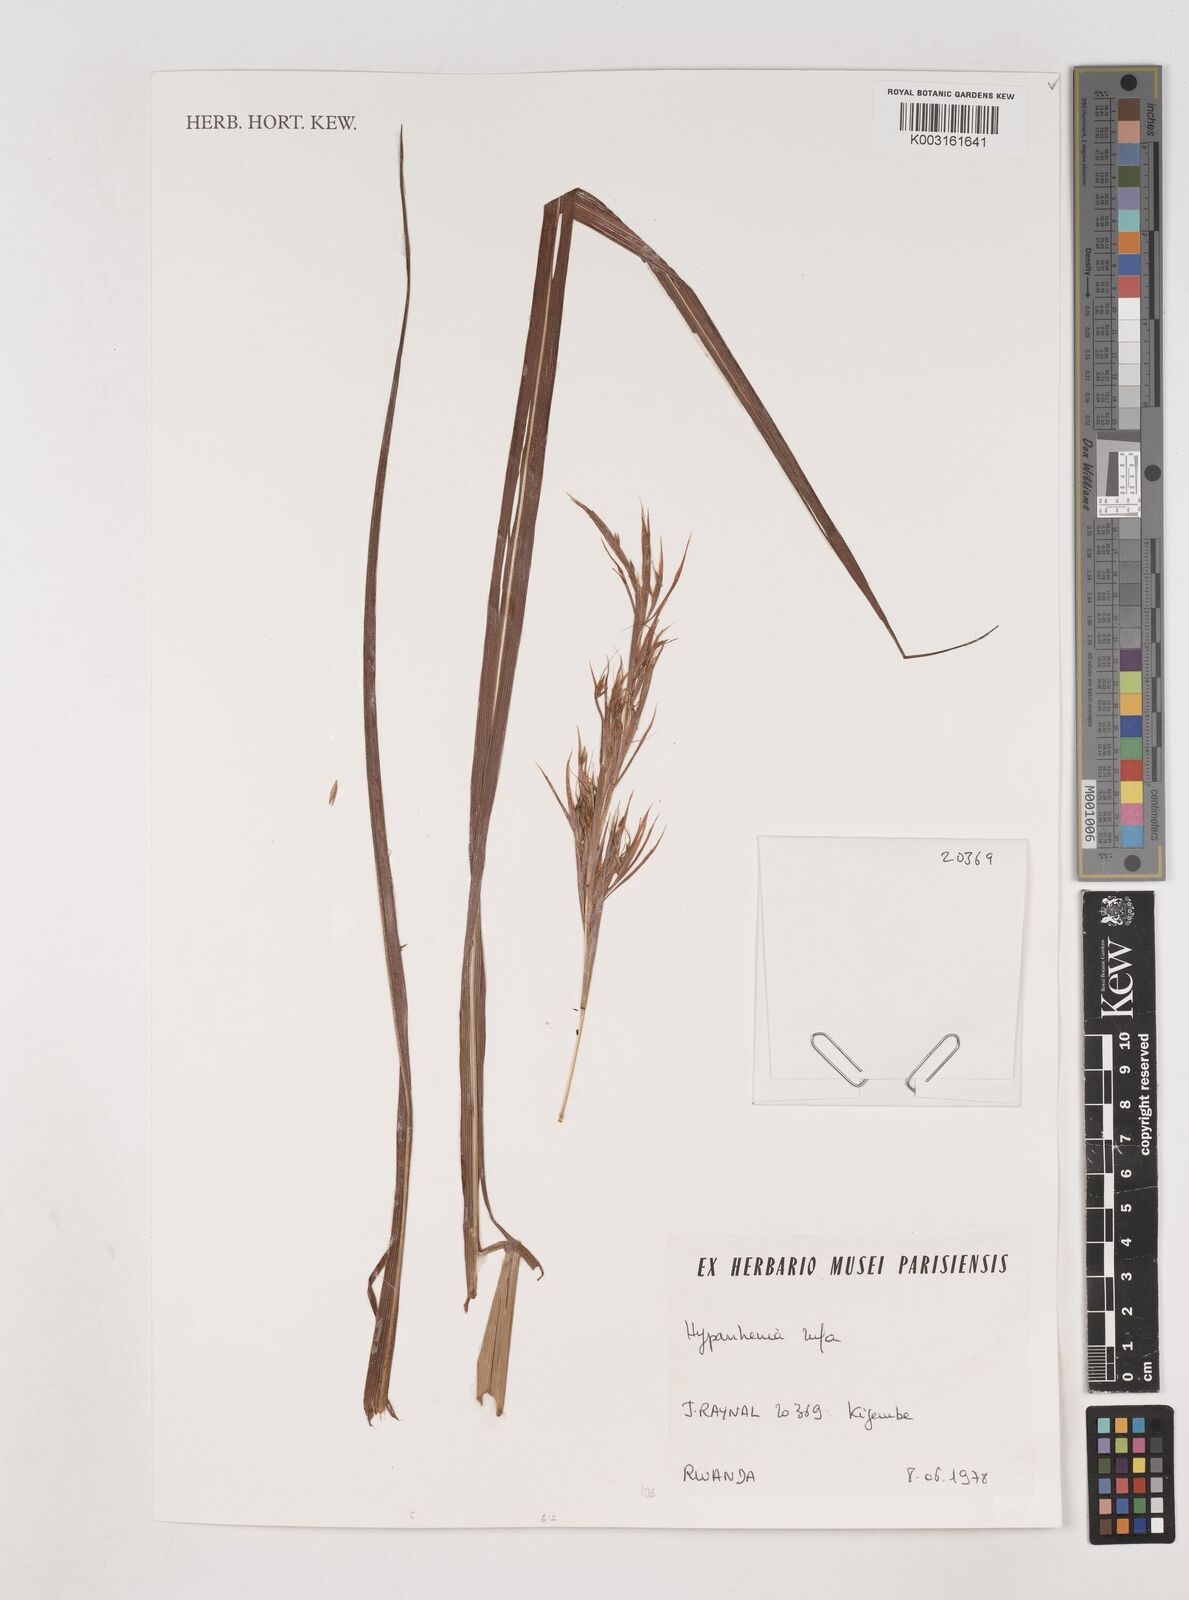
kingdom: Plantae
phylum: Tracheophyta
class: Liliopsida
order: Poales
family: Poaceae
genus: Hyparrhenia
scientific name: Hyparrhenia rufa
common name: Jaraguagrass
